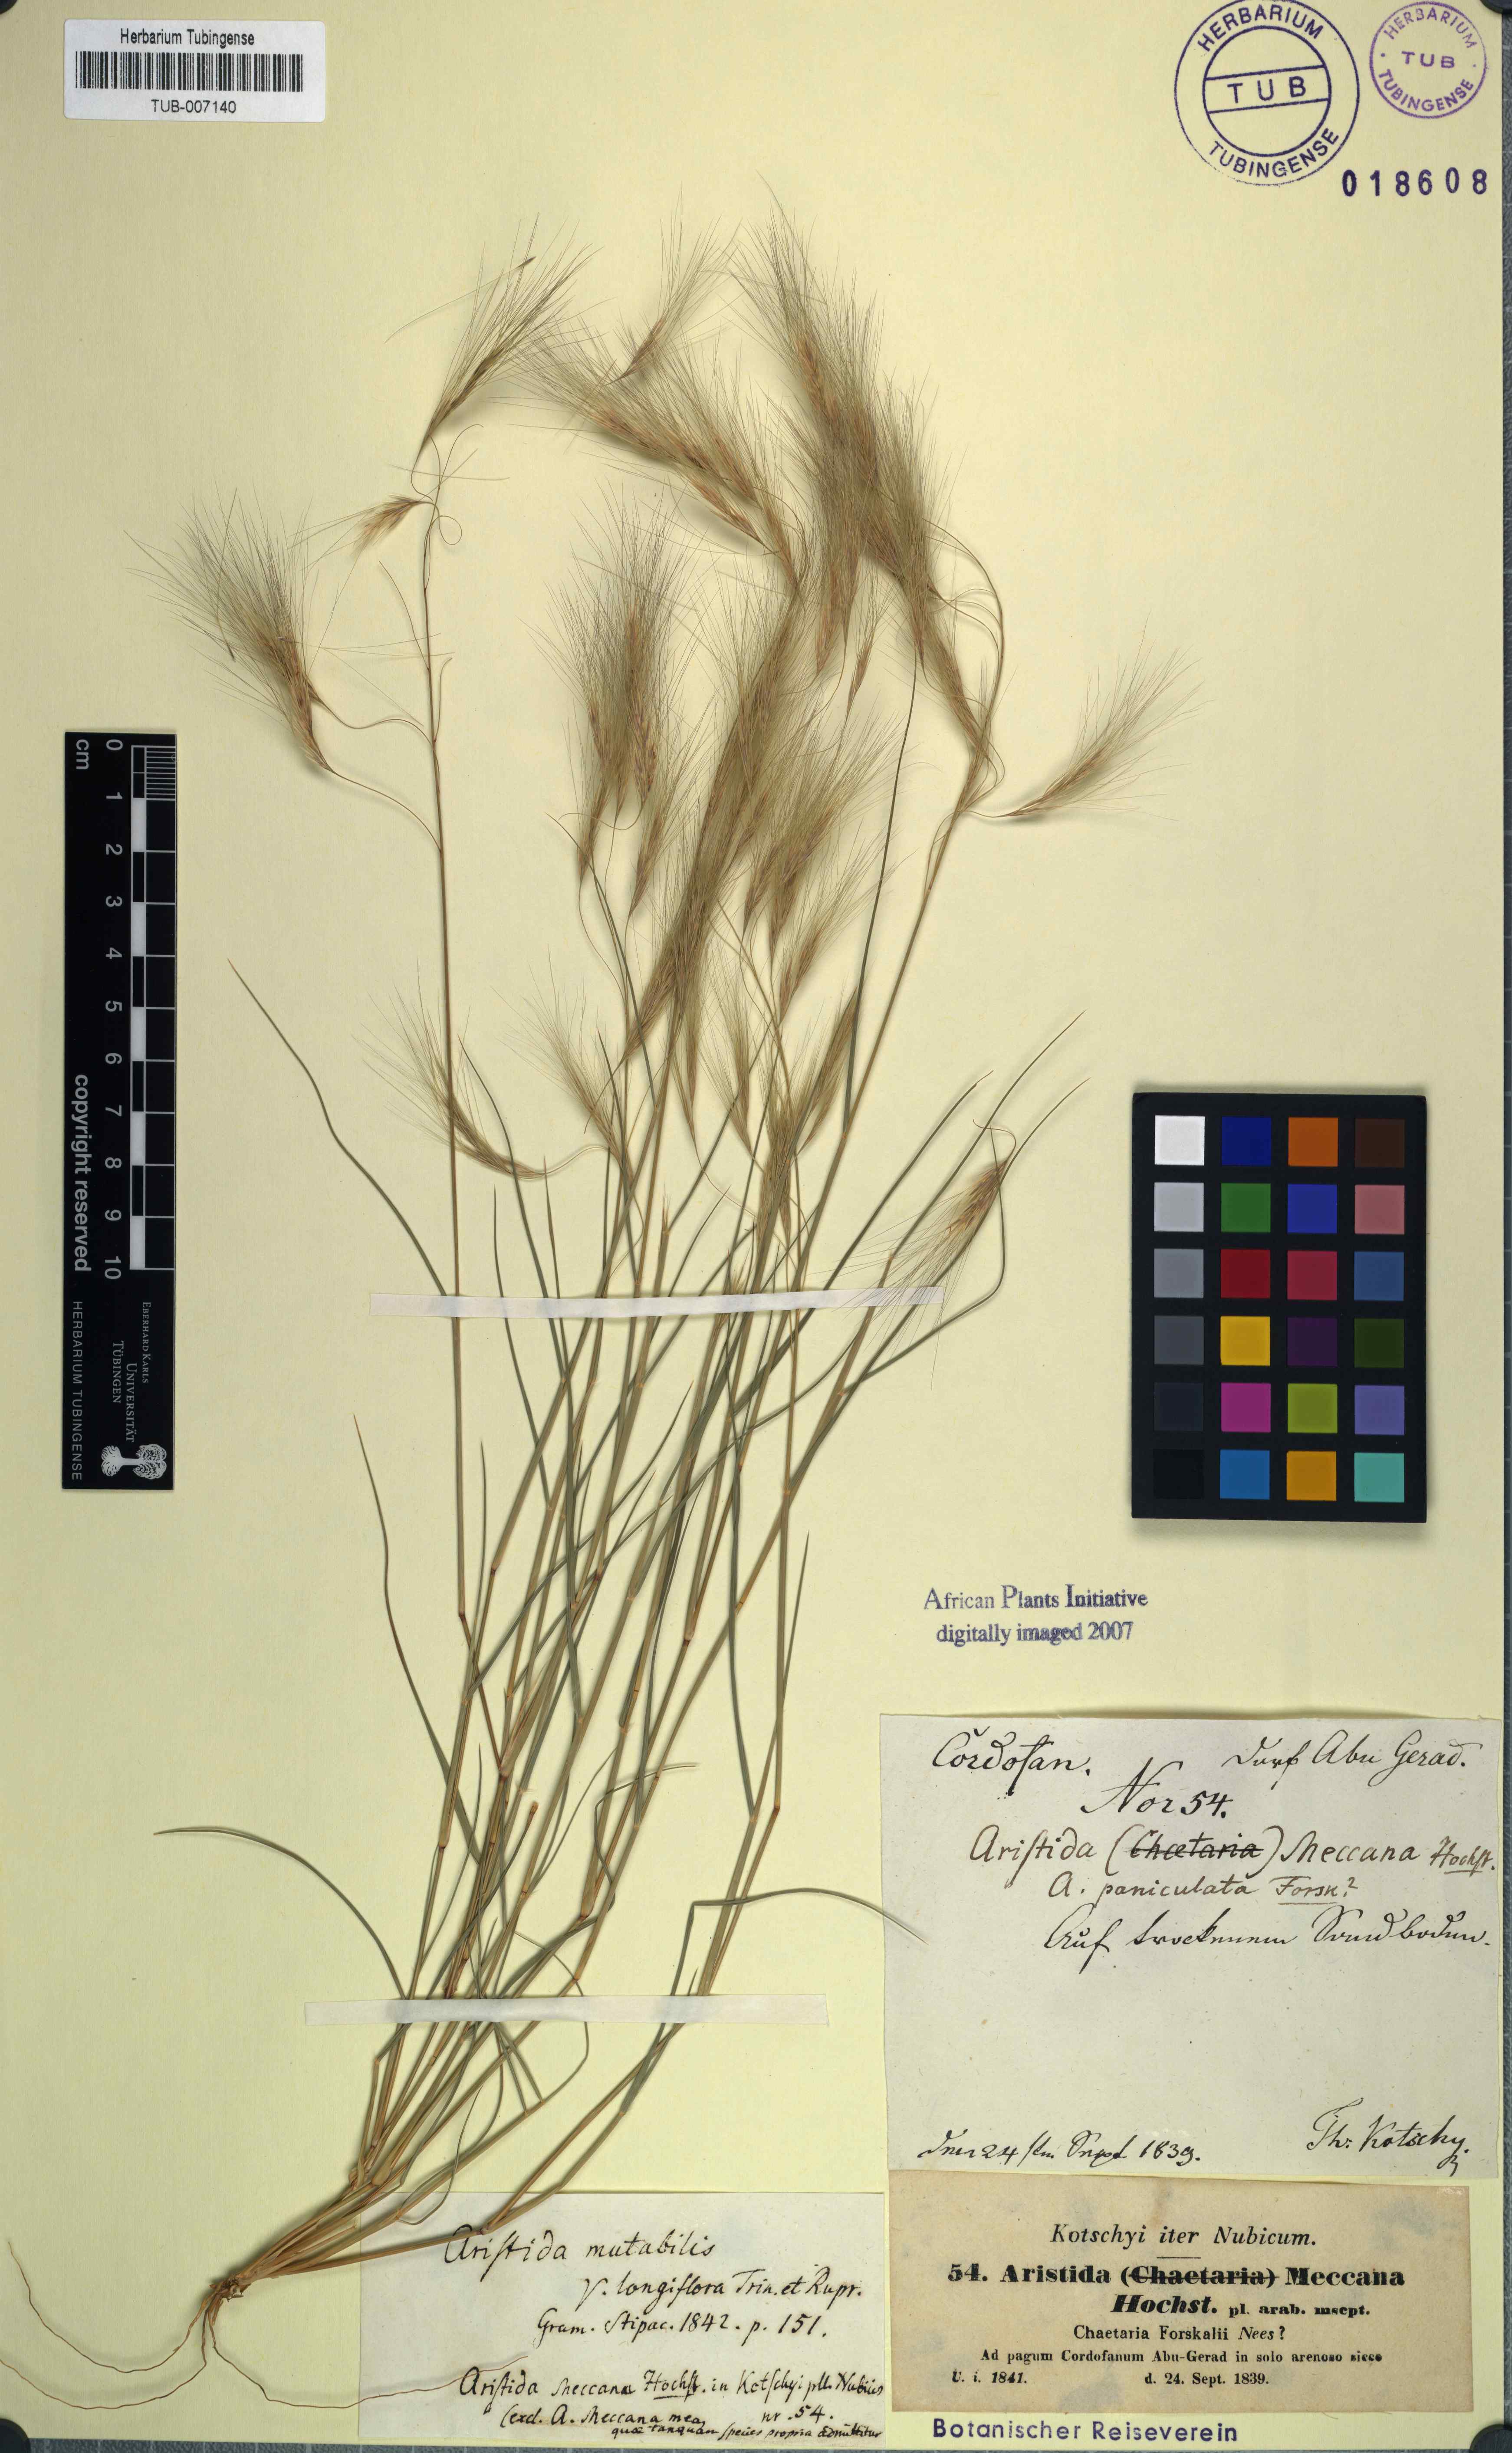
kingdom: Plantae
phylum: Tracheophyta
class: Liliopsida
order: Poales
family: Poaceae
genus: Aristida
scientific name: Aristida mutabilis
